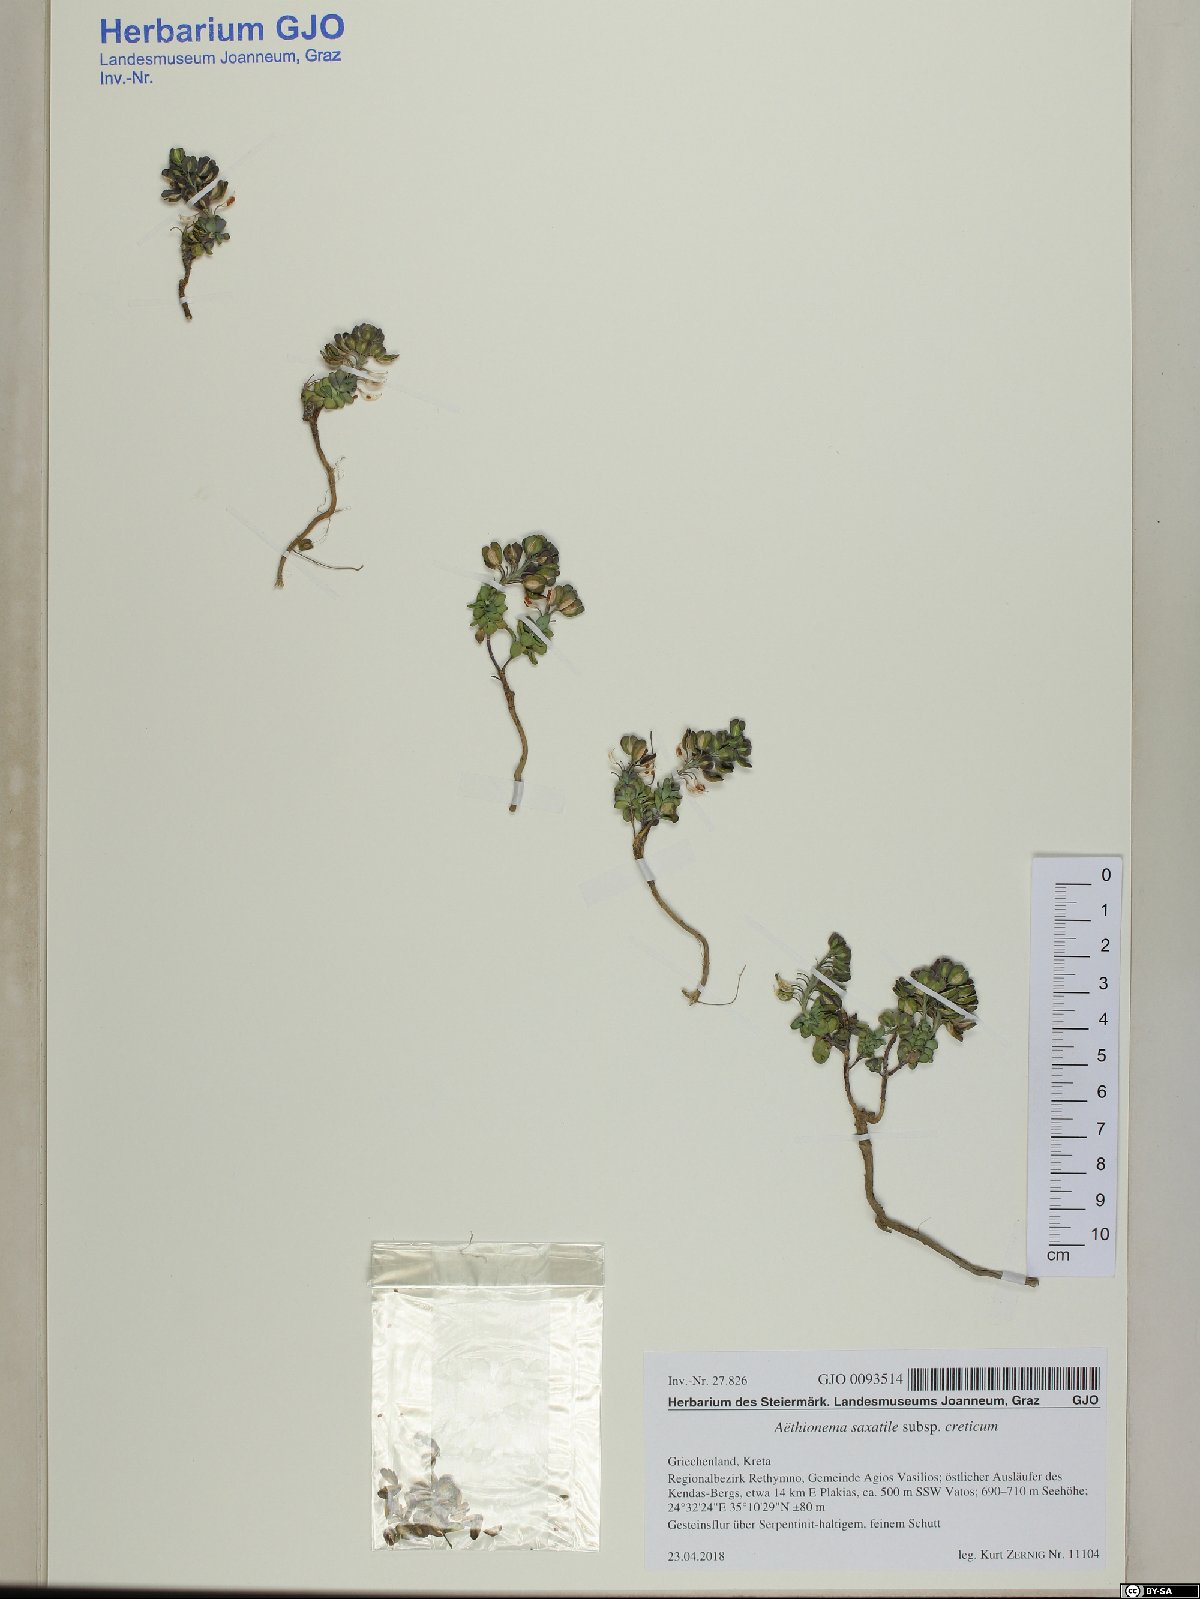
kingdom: Plantae
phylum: Tracheophyta
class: Magnoliopsida
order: Brassicales
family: Brassicaceae
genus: Aethionema
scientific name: Aethionema saxatile
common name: Burnt candytuft
